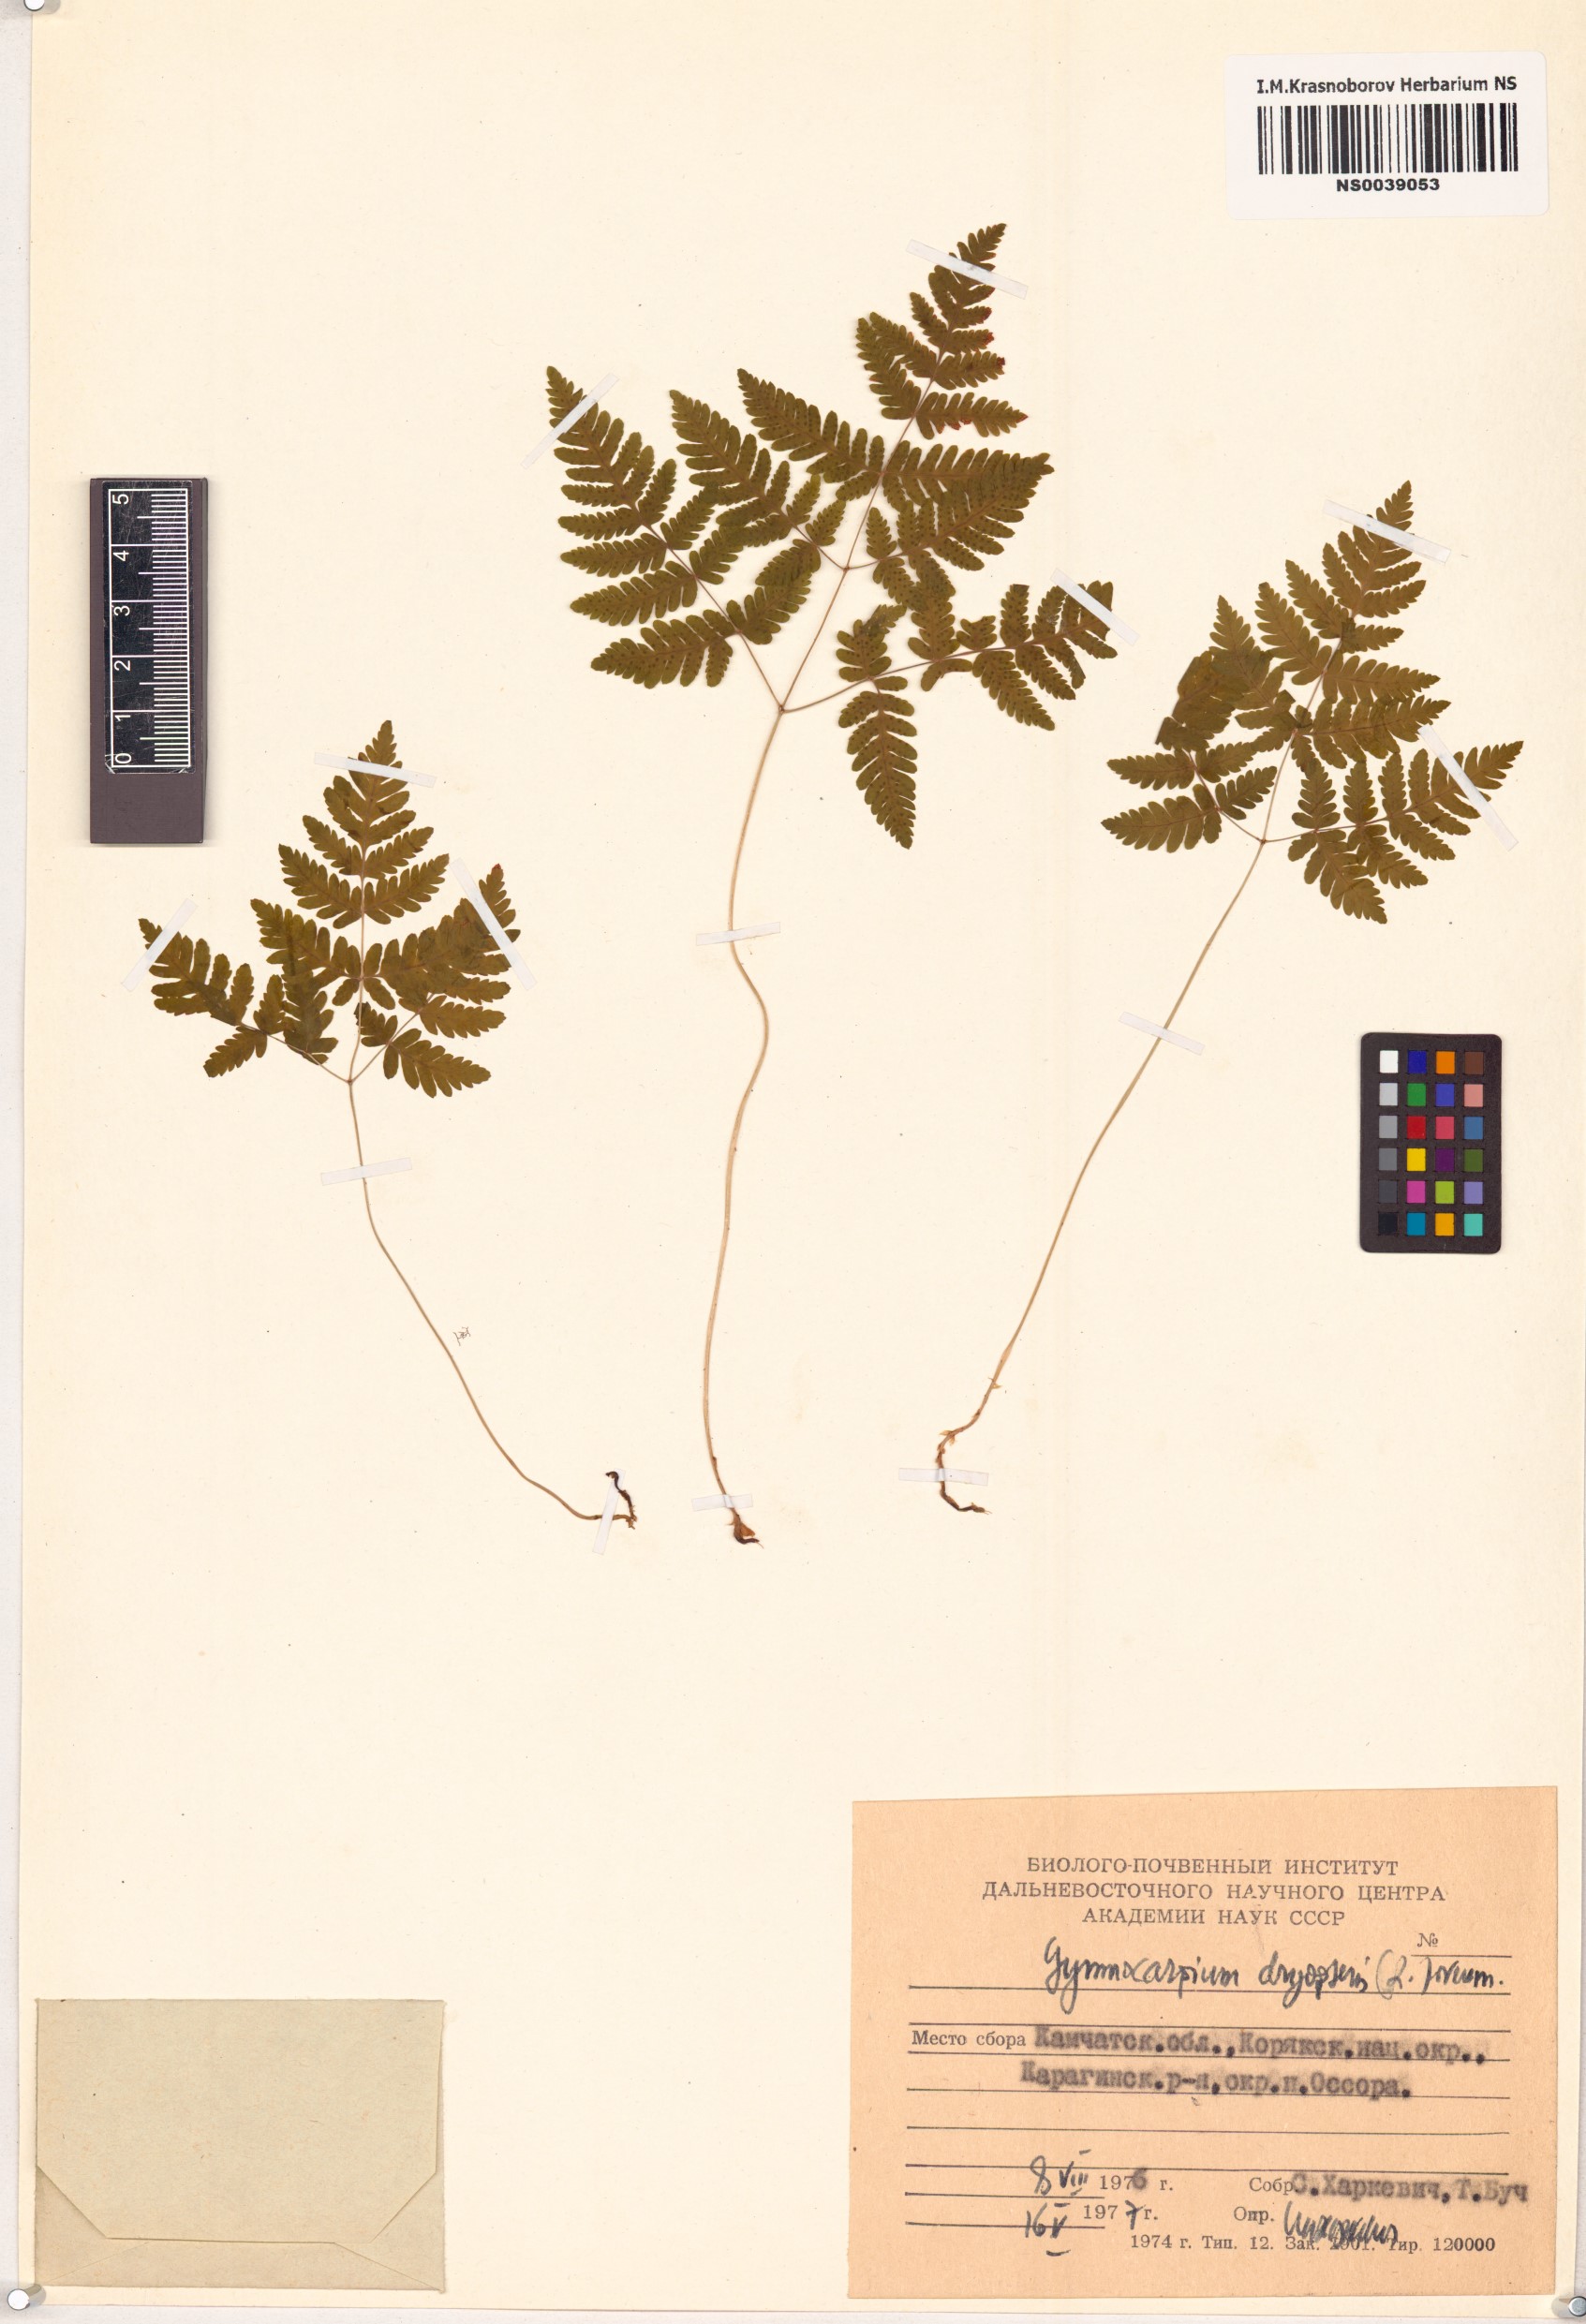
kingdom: Plantae
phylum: Tracheophyta
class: Polypodiopsida
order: Polypodiales
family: Cystopteridaceae
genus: Gymnocarpium
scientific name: Gymnocarpium dryopteris
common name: Oak fern
